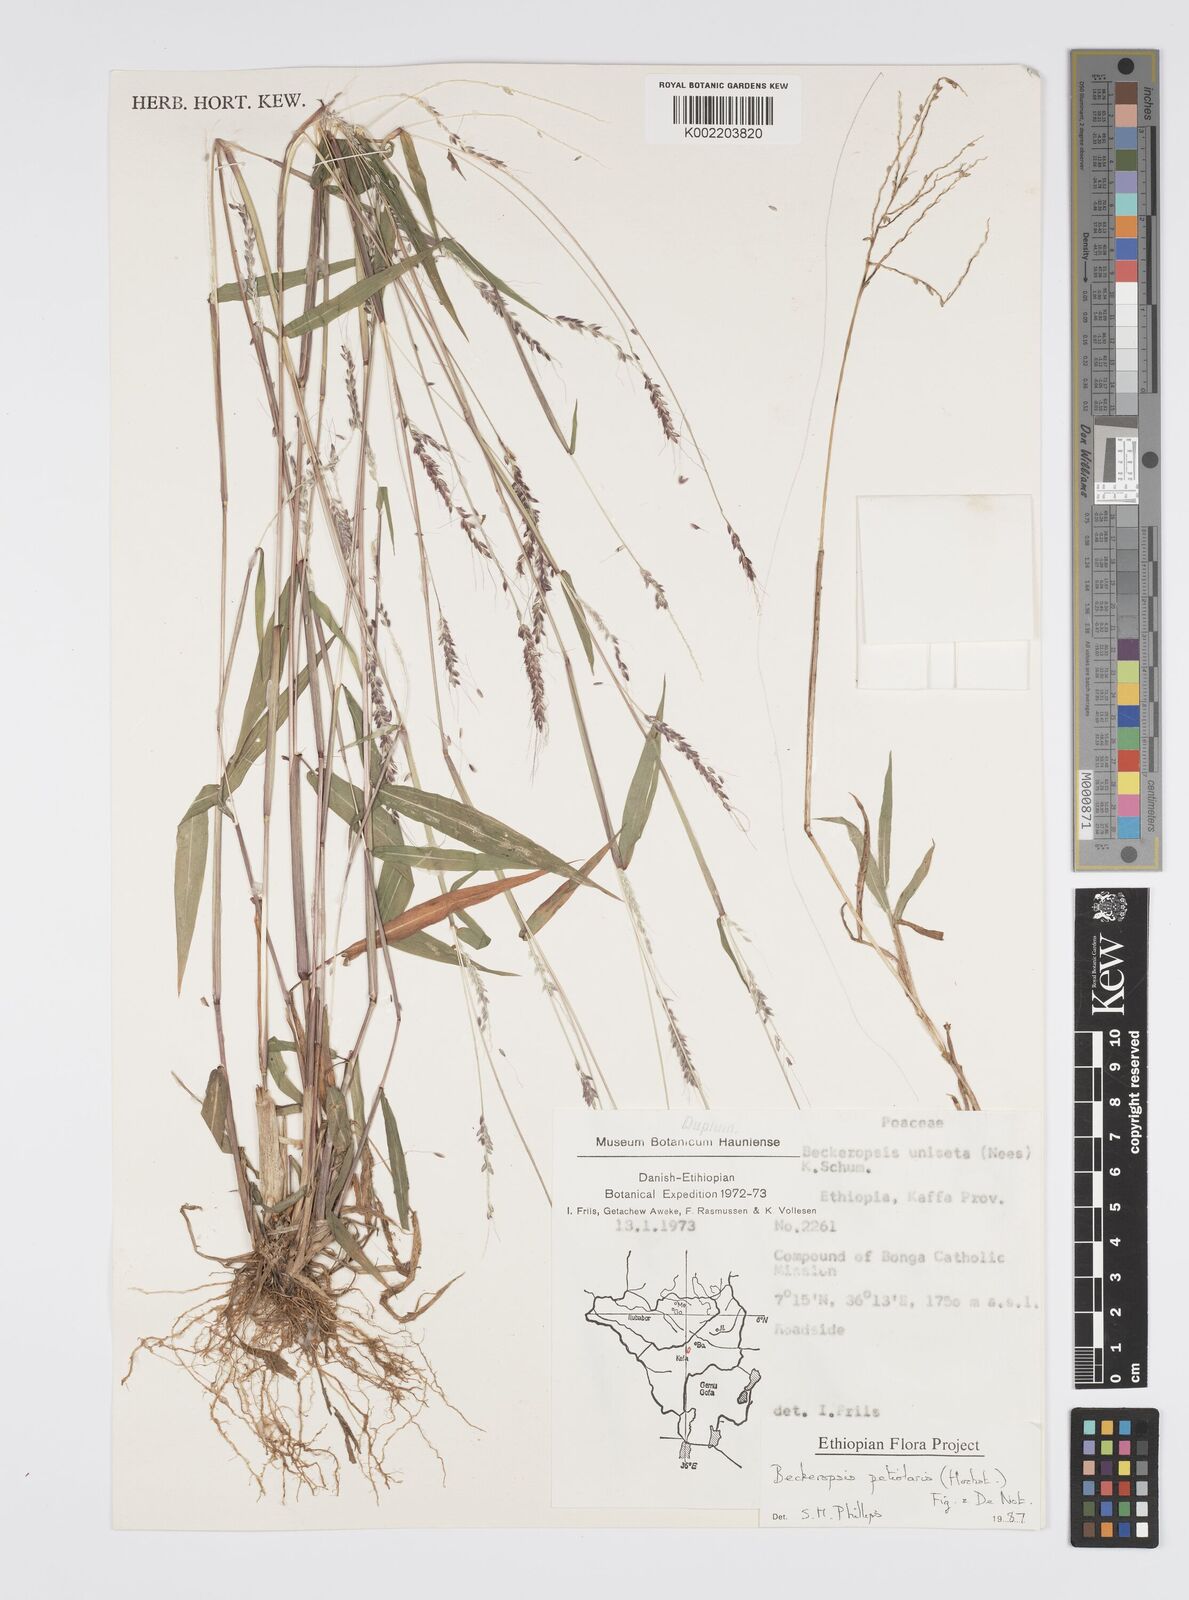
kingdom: Plantae
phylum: Tracheophyta
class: Liliopsida
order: Poales
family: Poaceae
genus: Cenchrus
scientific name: Cenchrus unisetus
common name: Natal grass
